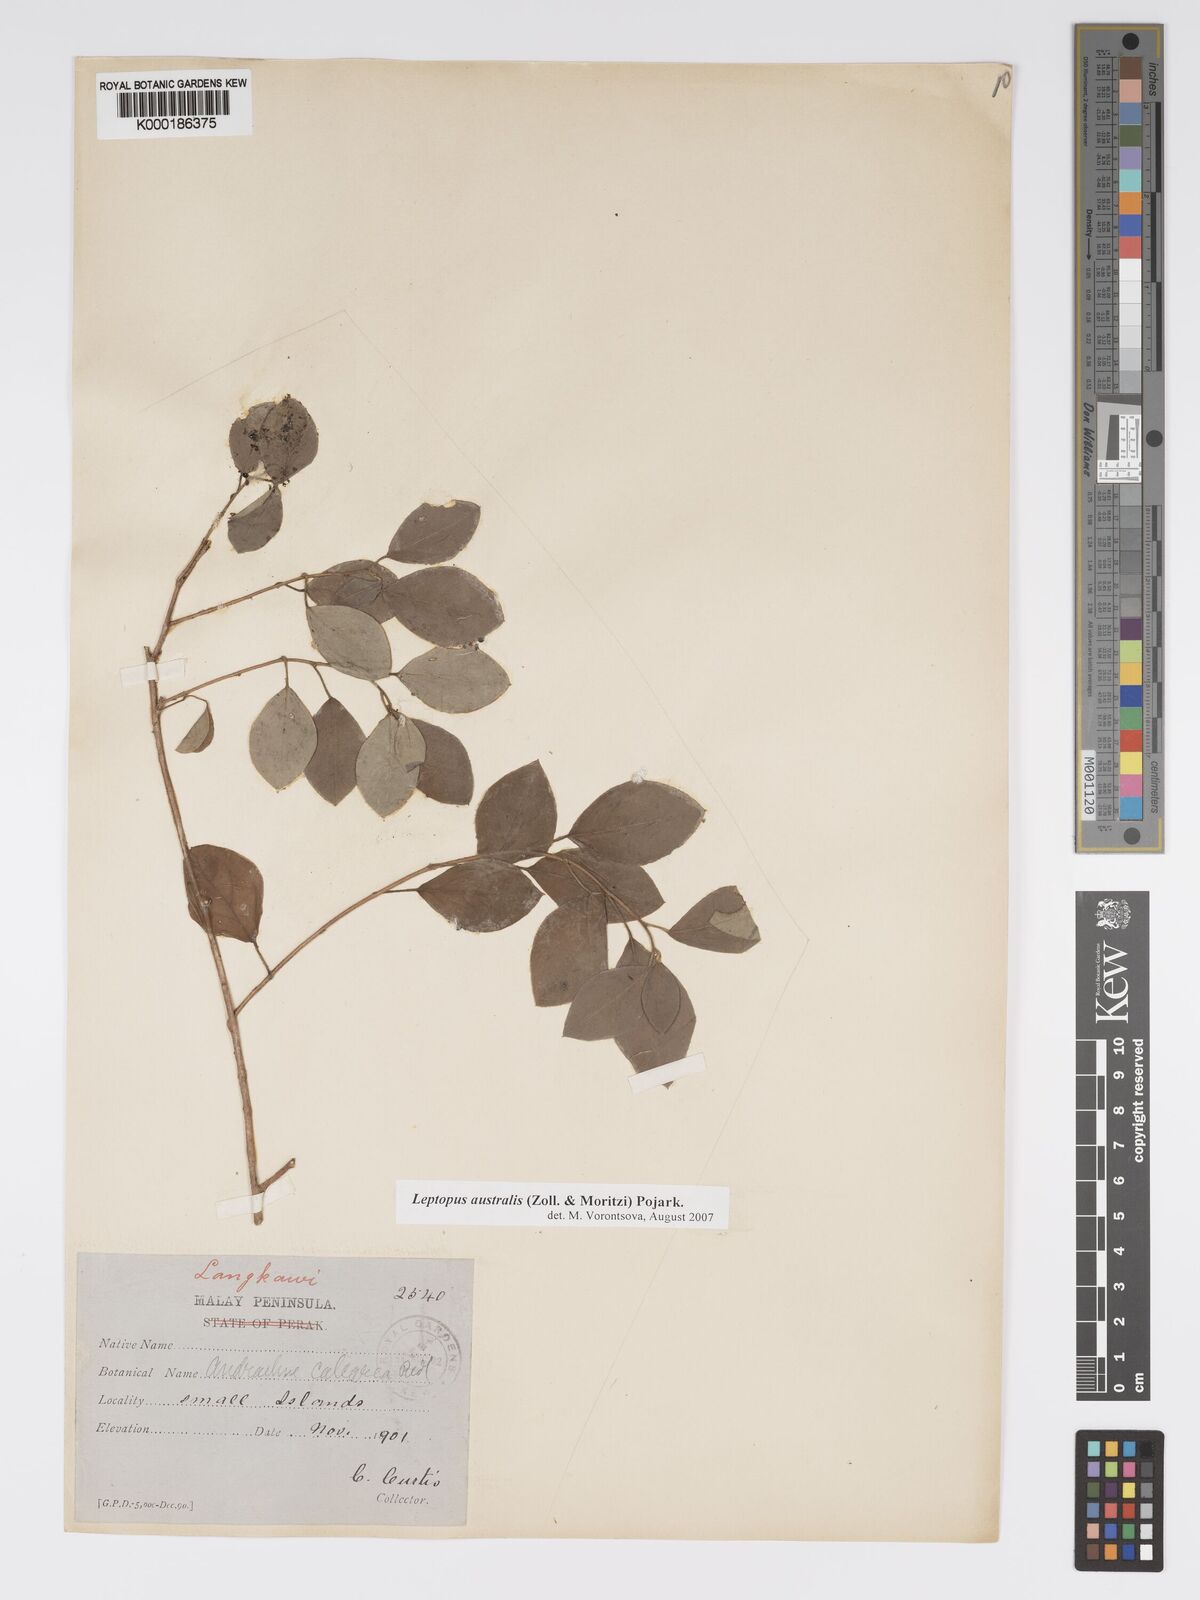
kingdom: Plantae
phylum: Tracheophyta
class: Magnoliopsida
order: Malpighiales
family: Phyllanthaceae
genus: Leptopus
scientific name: Leptopus australis
